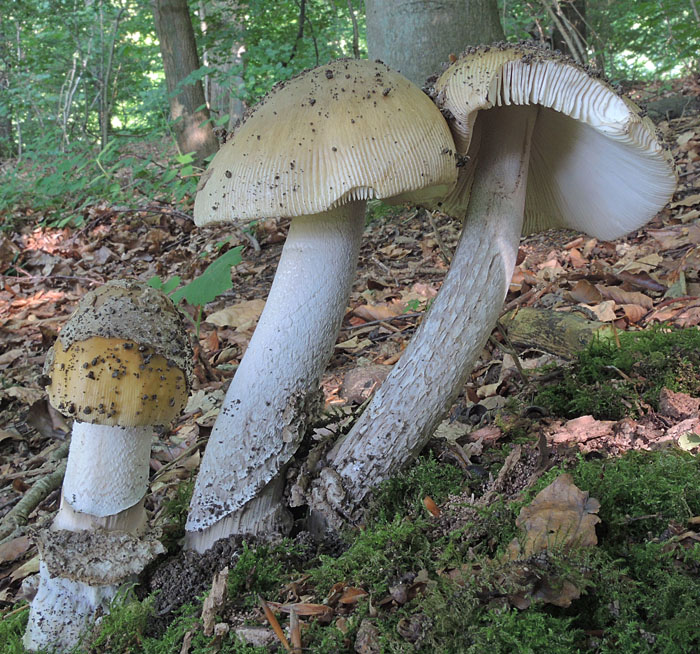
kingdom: Fungi
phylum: Basidiomycota
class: Agaricomycetes
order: Agaricales
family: Amanitaceae
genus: Amanita
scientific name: Amanita ceciliae
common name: stor kam-fluesvamp
